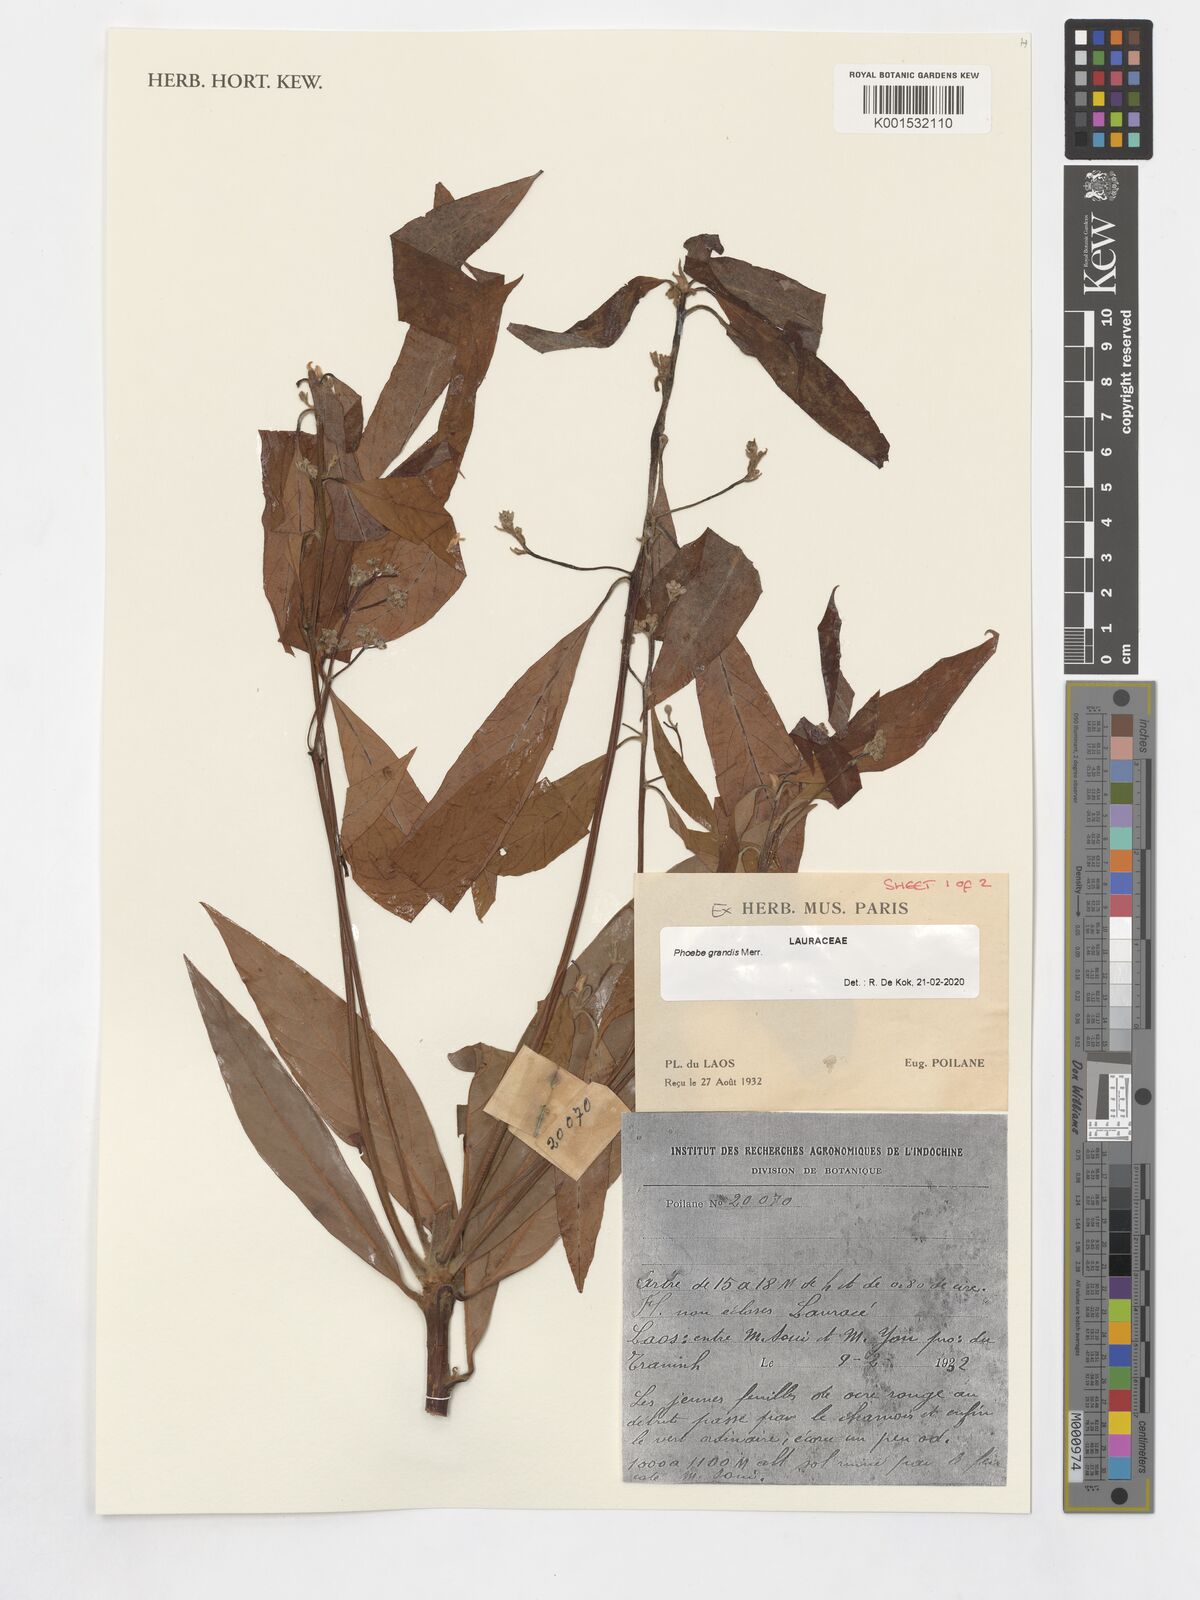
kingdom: Plantae
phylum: Tracheophyta
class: Magnoliopsida
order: Laurales
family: Lauraceae
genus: Phoebe
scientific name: Phoebe grandis
